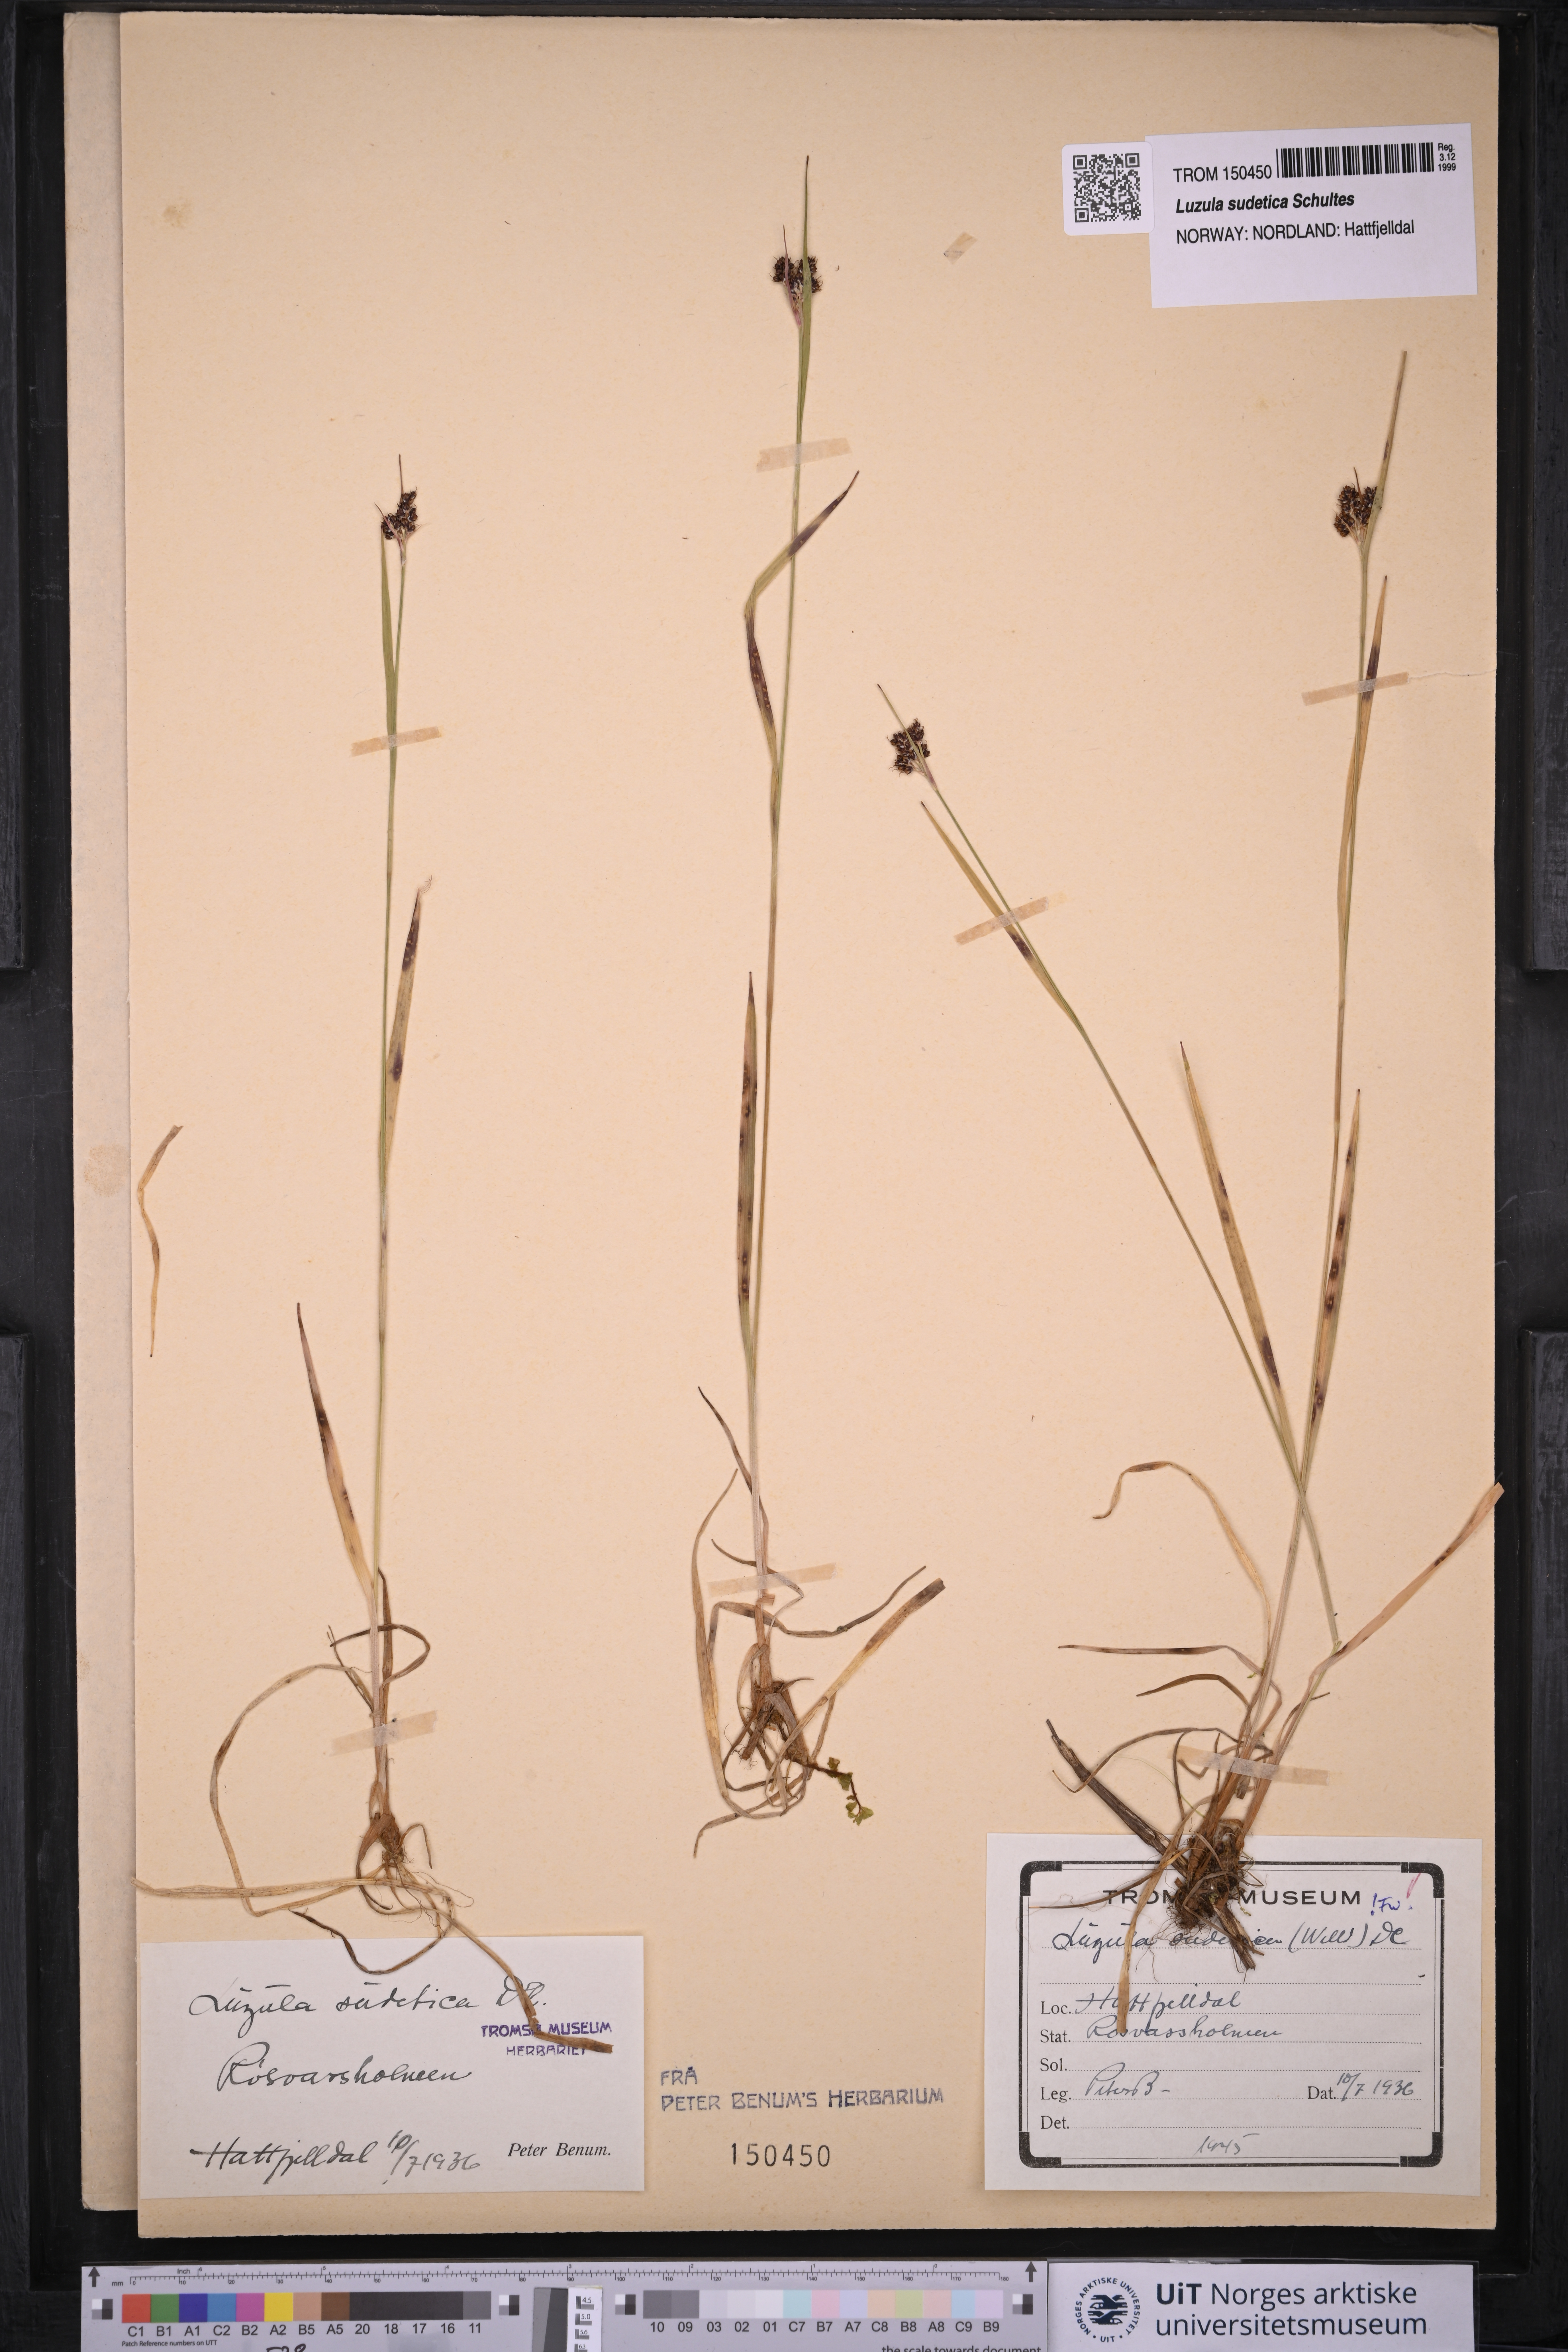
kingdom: Plantae
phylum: Tracheophyta
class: Liliopsida
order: Poales
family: Juncaceae
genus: Luzula
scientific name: Luzula sudetica
